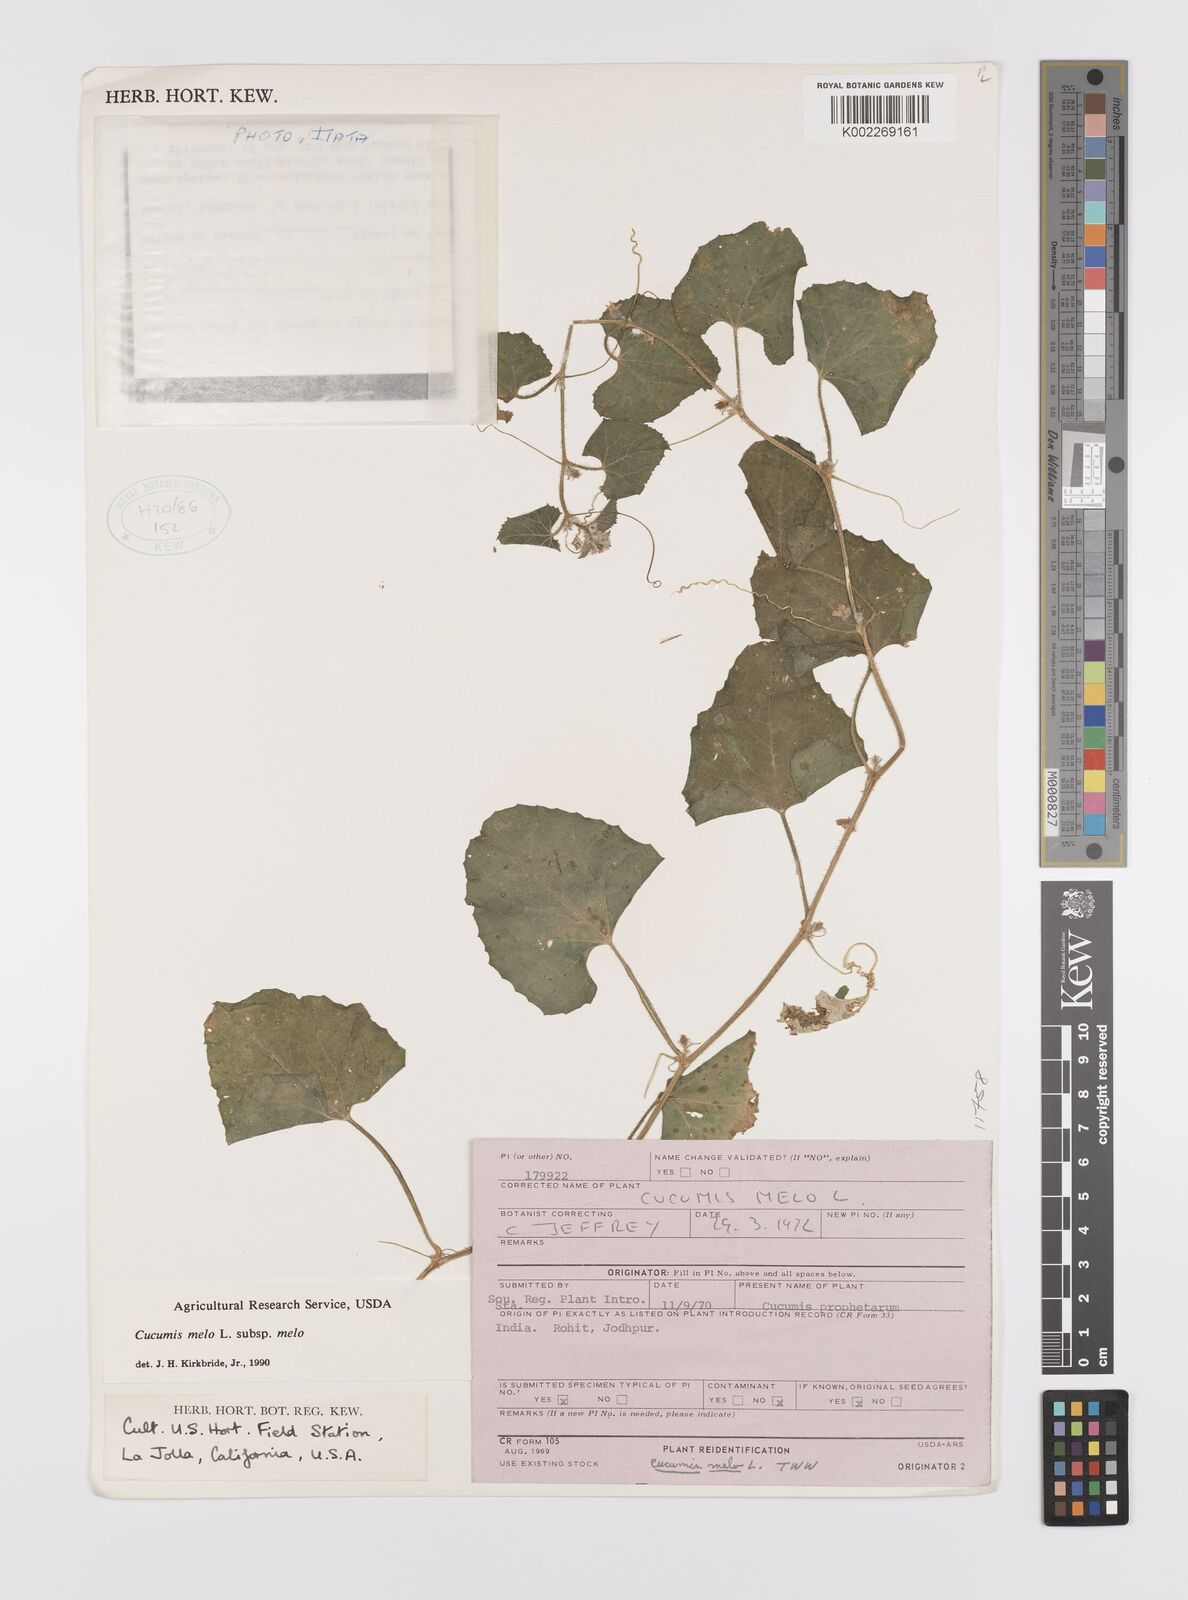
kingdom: Plantae
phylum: Tracheophyta
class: Magnoliopsida
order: Cucurbitales
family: Cucurbitaceae
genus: Cucumis
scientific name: Cucumis melo
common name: Melon
